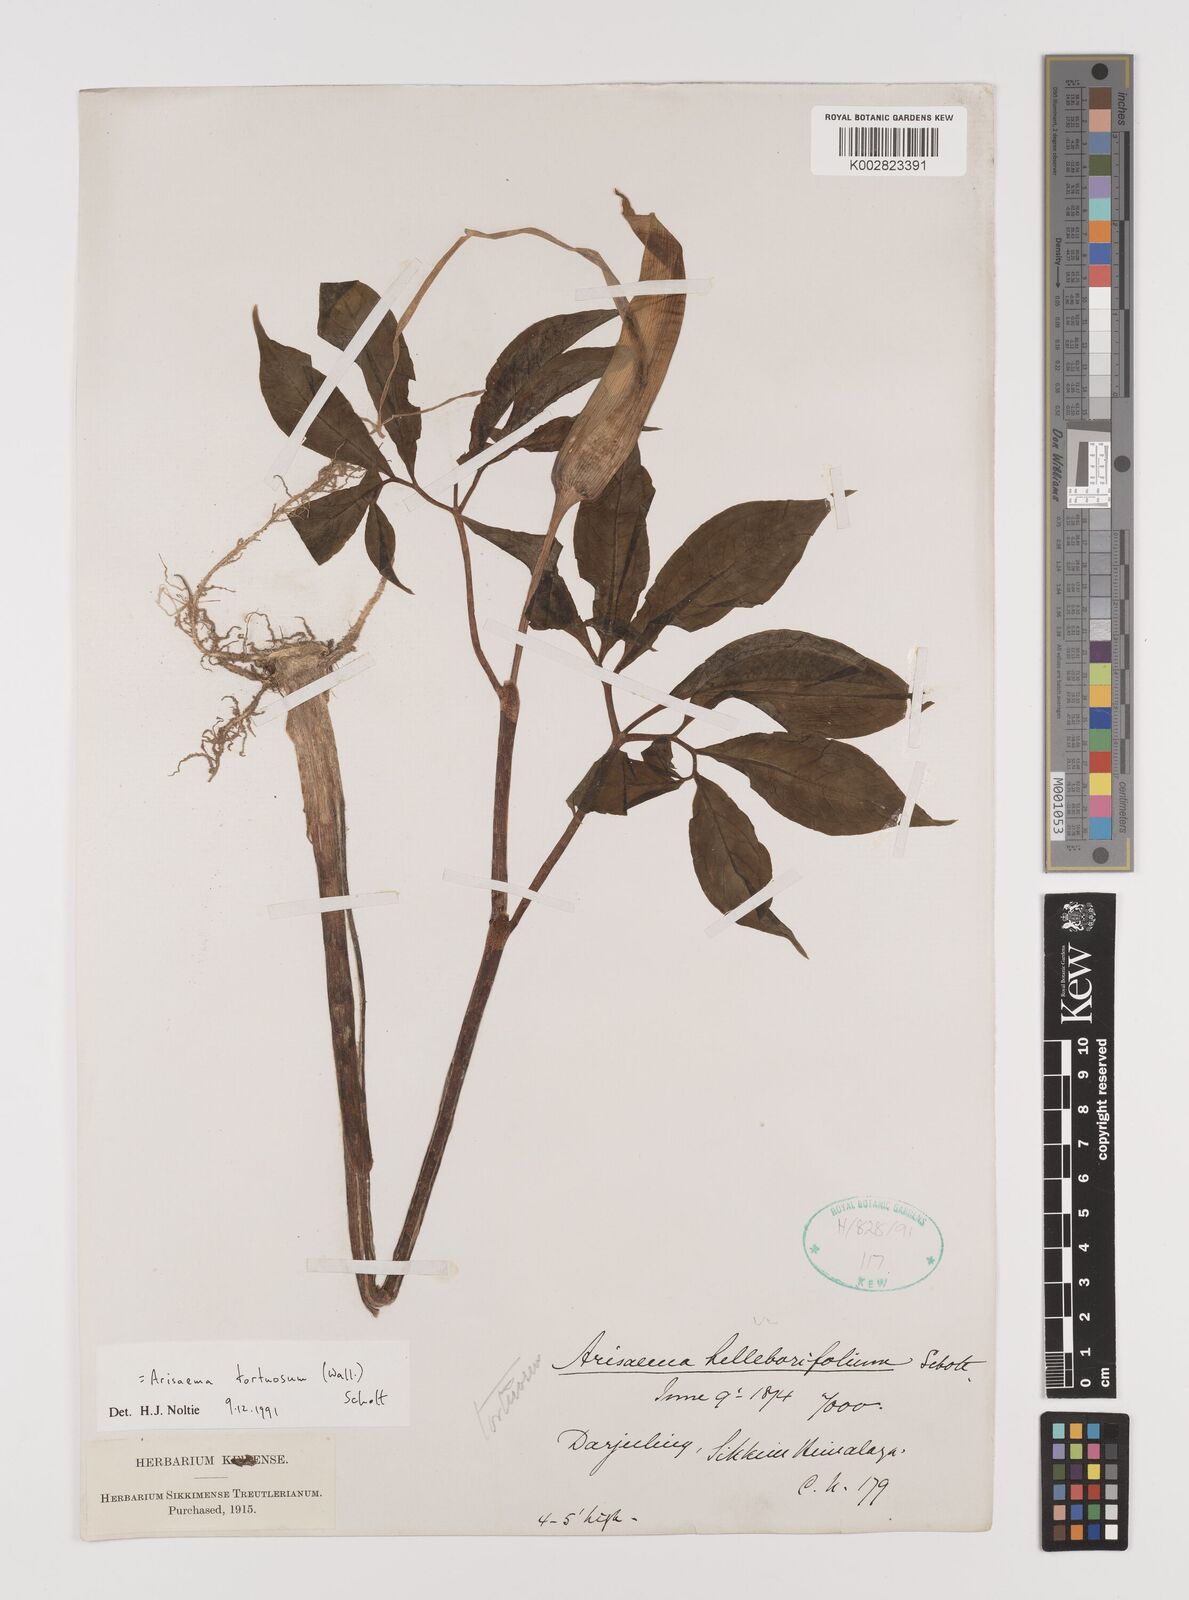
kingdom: Plantae
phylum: Tracheophyta
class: Liliopsida
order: Alismatales
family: Araceae
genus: Arisaema
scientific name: Arisaema tortuosum
